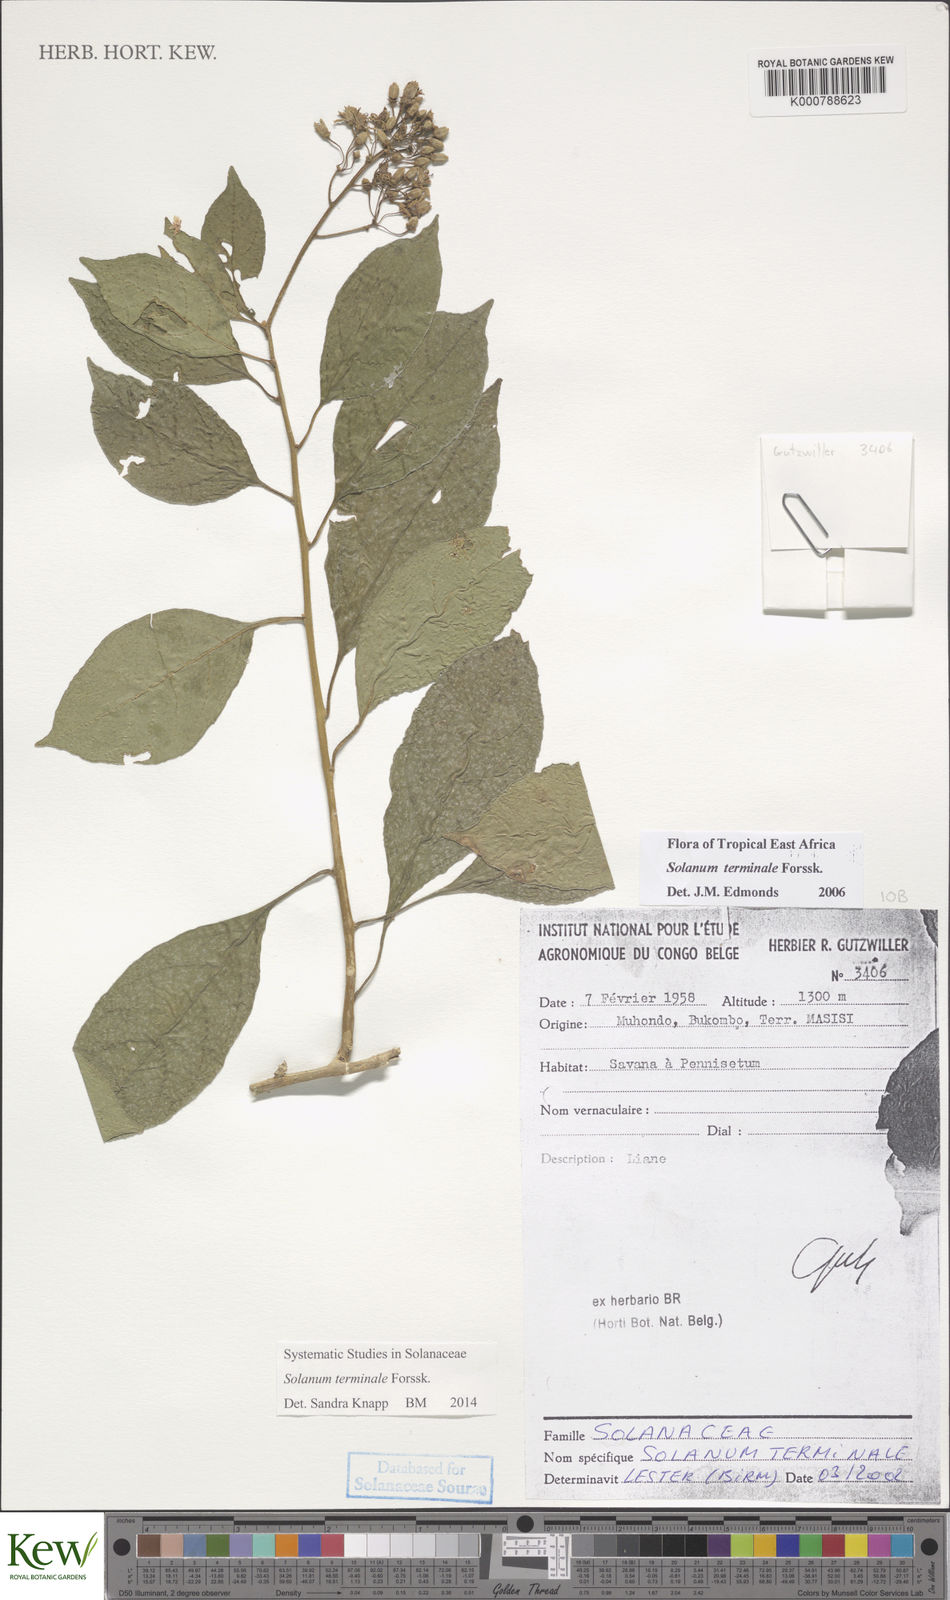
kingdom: Plantae
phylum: Tracheophyta
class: Magnoliopsida
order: Solanales
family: Solanaceae
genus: Solanum
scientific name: Solanum terminale
